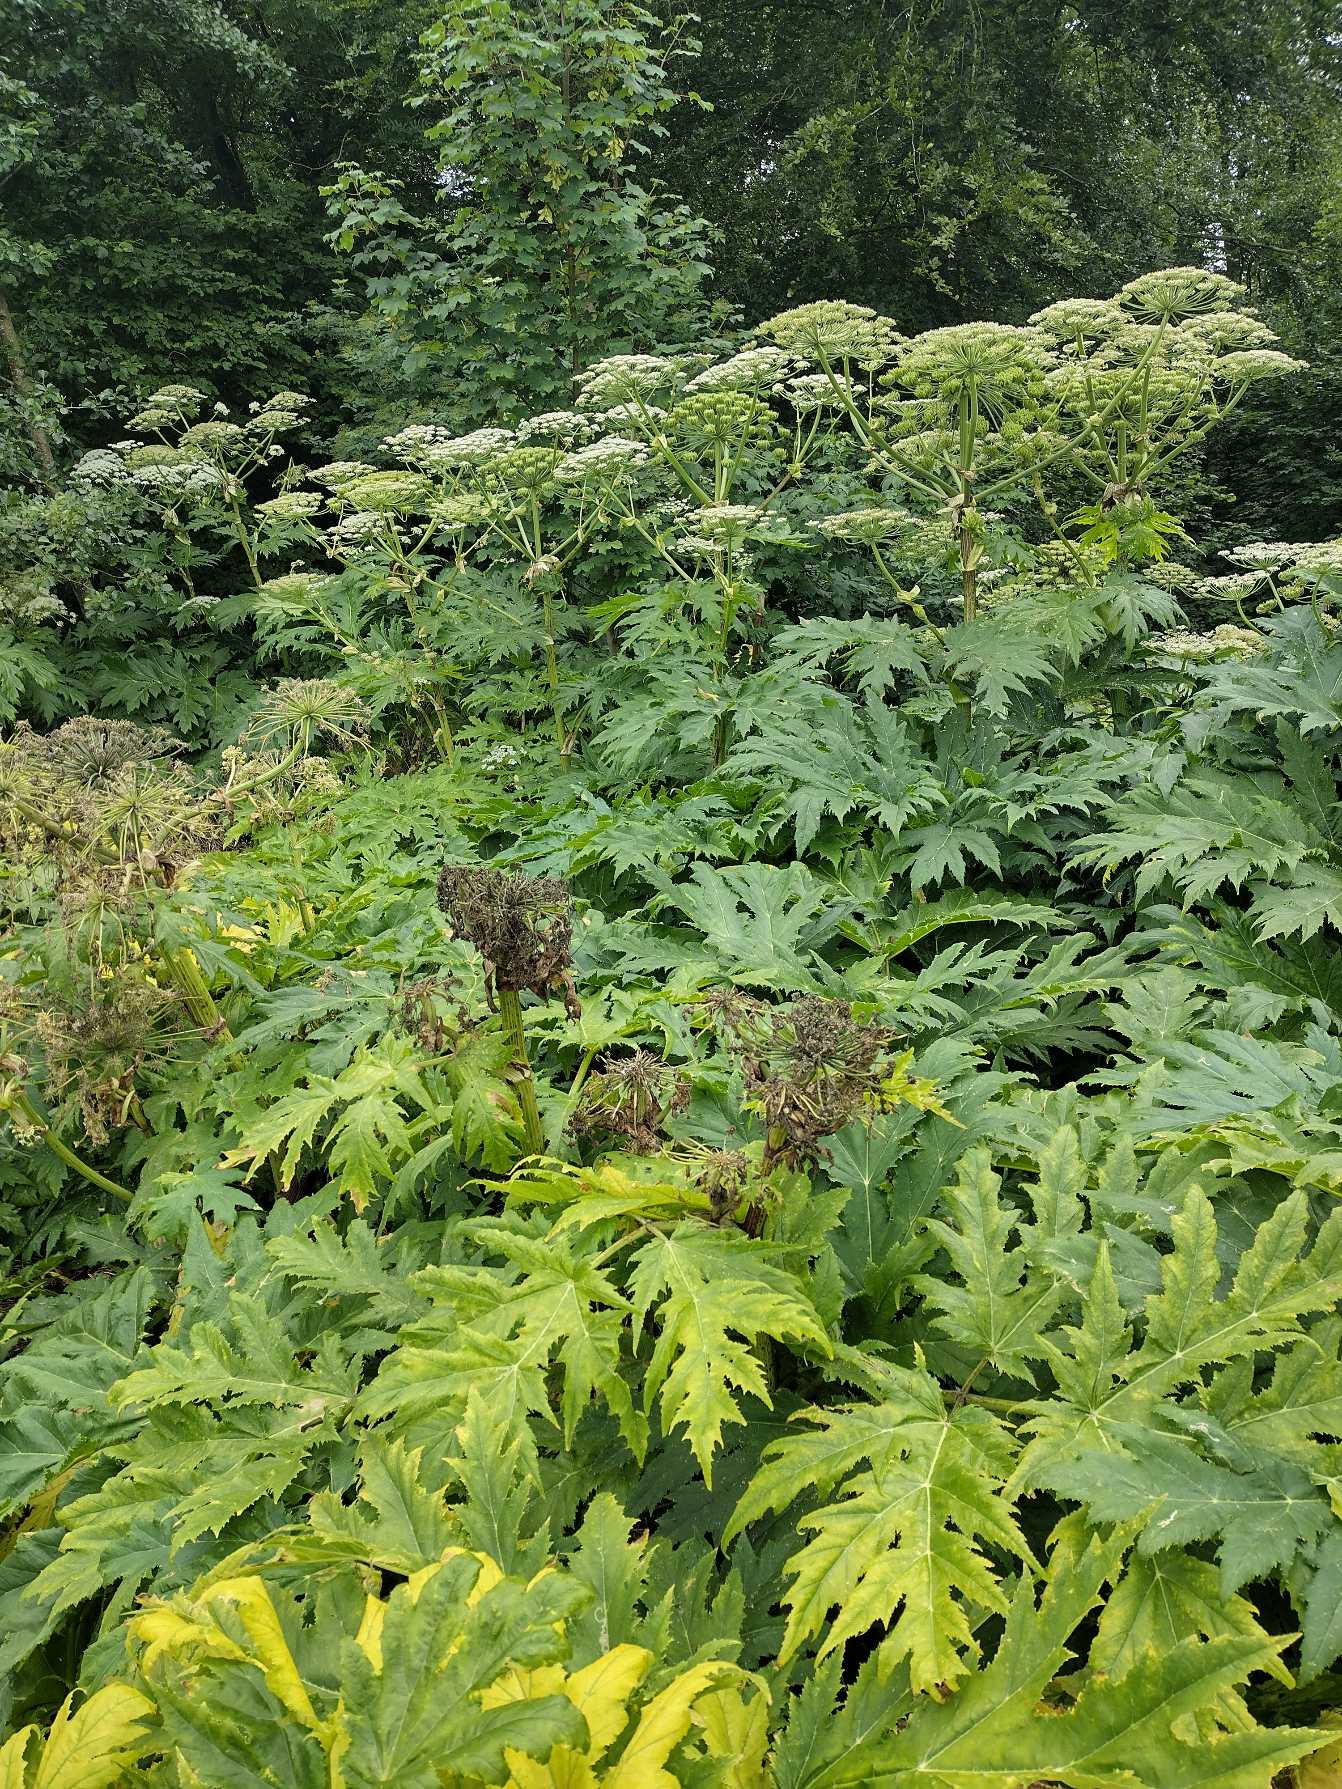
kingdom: Plantae
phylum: Tracheophyta
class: Magnoliopsida
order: Apiales
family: Apiaceae
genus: Heracleum
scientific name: Heracleum mantegazzianum
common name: Kæmpe-bjørneklo
